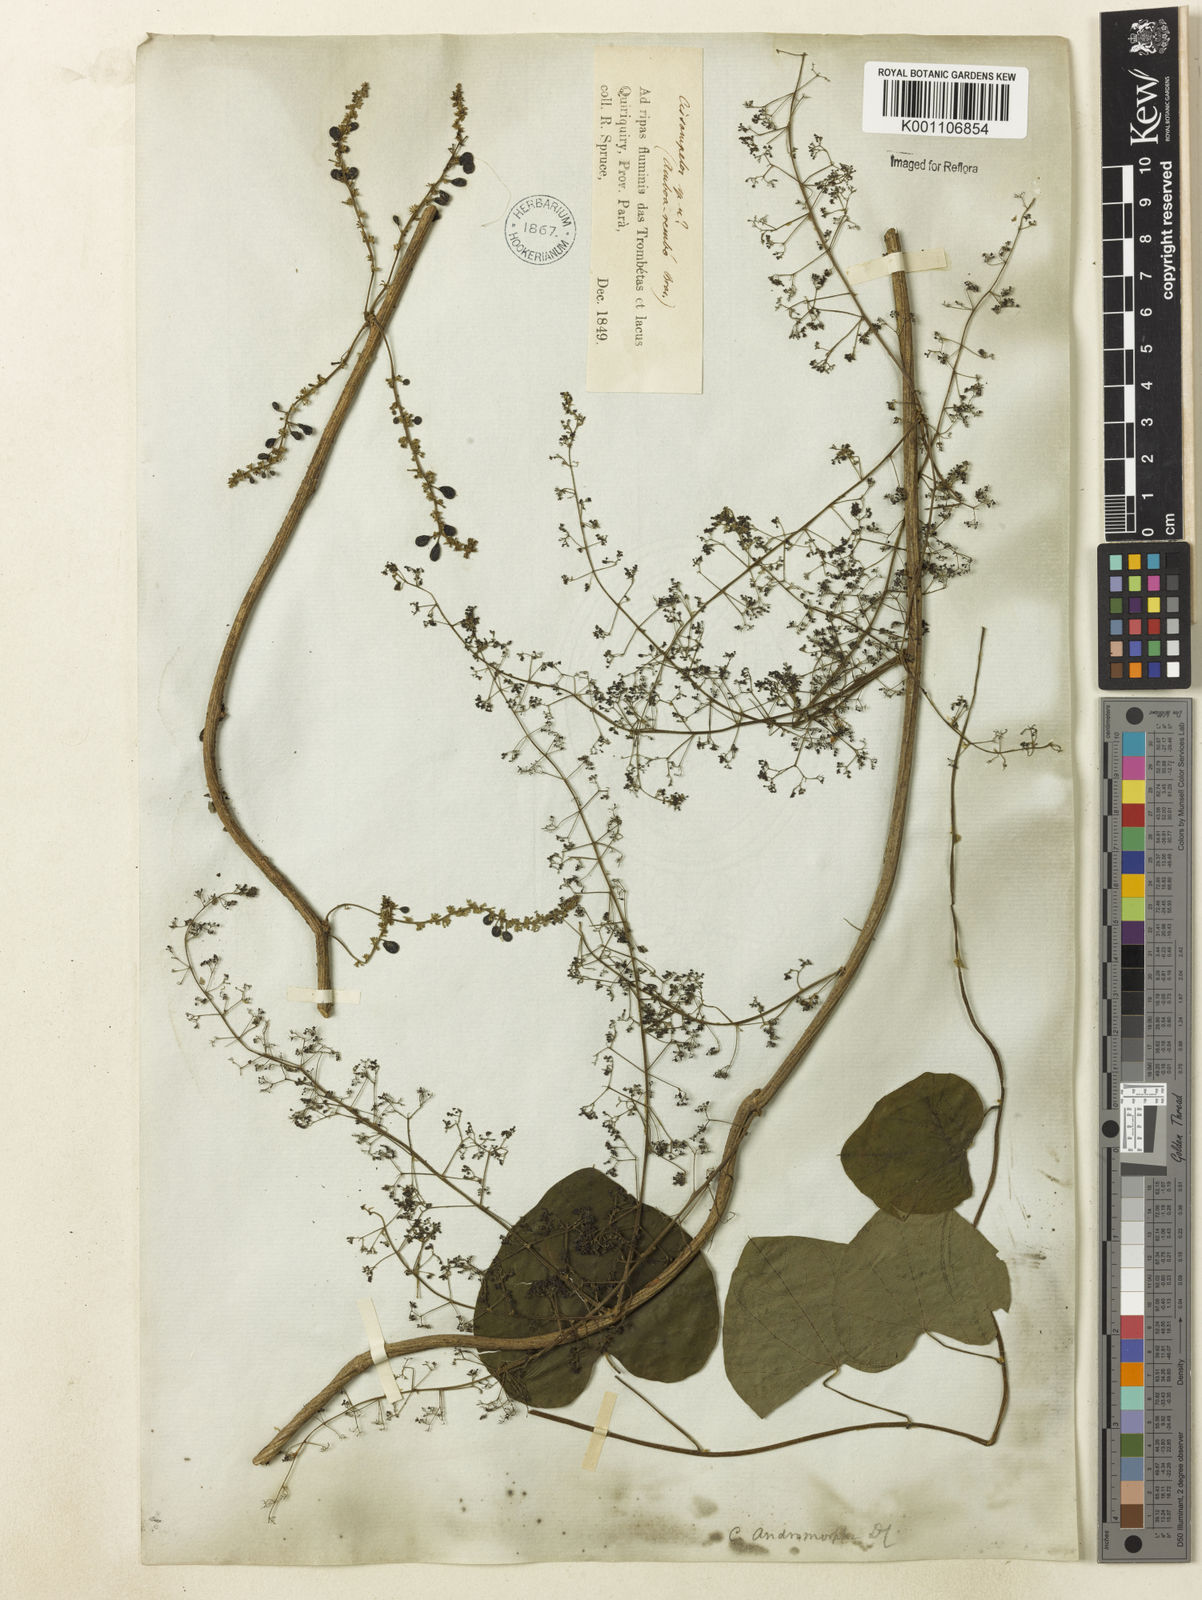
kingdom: Plantae
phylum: Tracheophyta
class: Magnoliopsida
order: Ranunculales
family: Menispermaceae
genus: Cissampelos
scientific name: Cissampelos andromorpha
